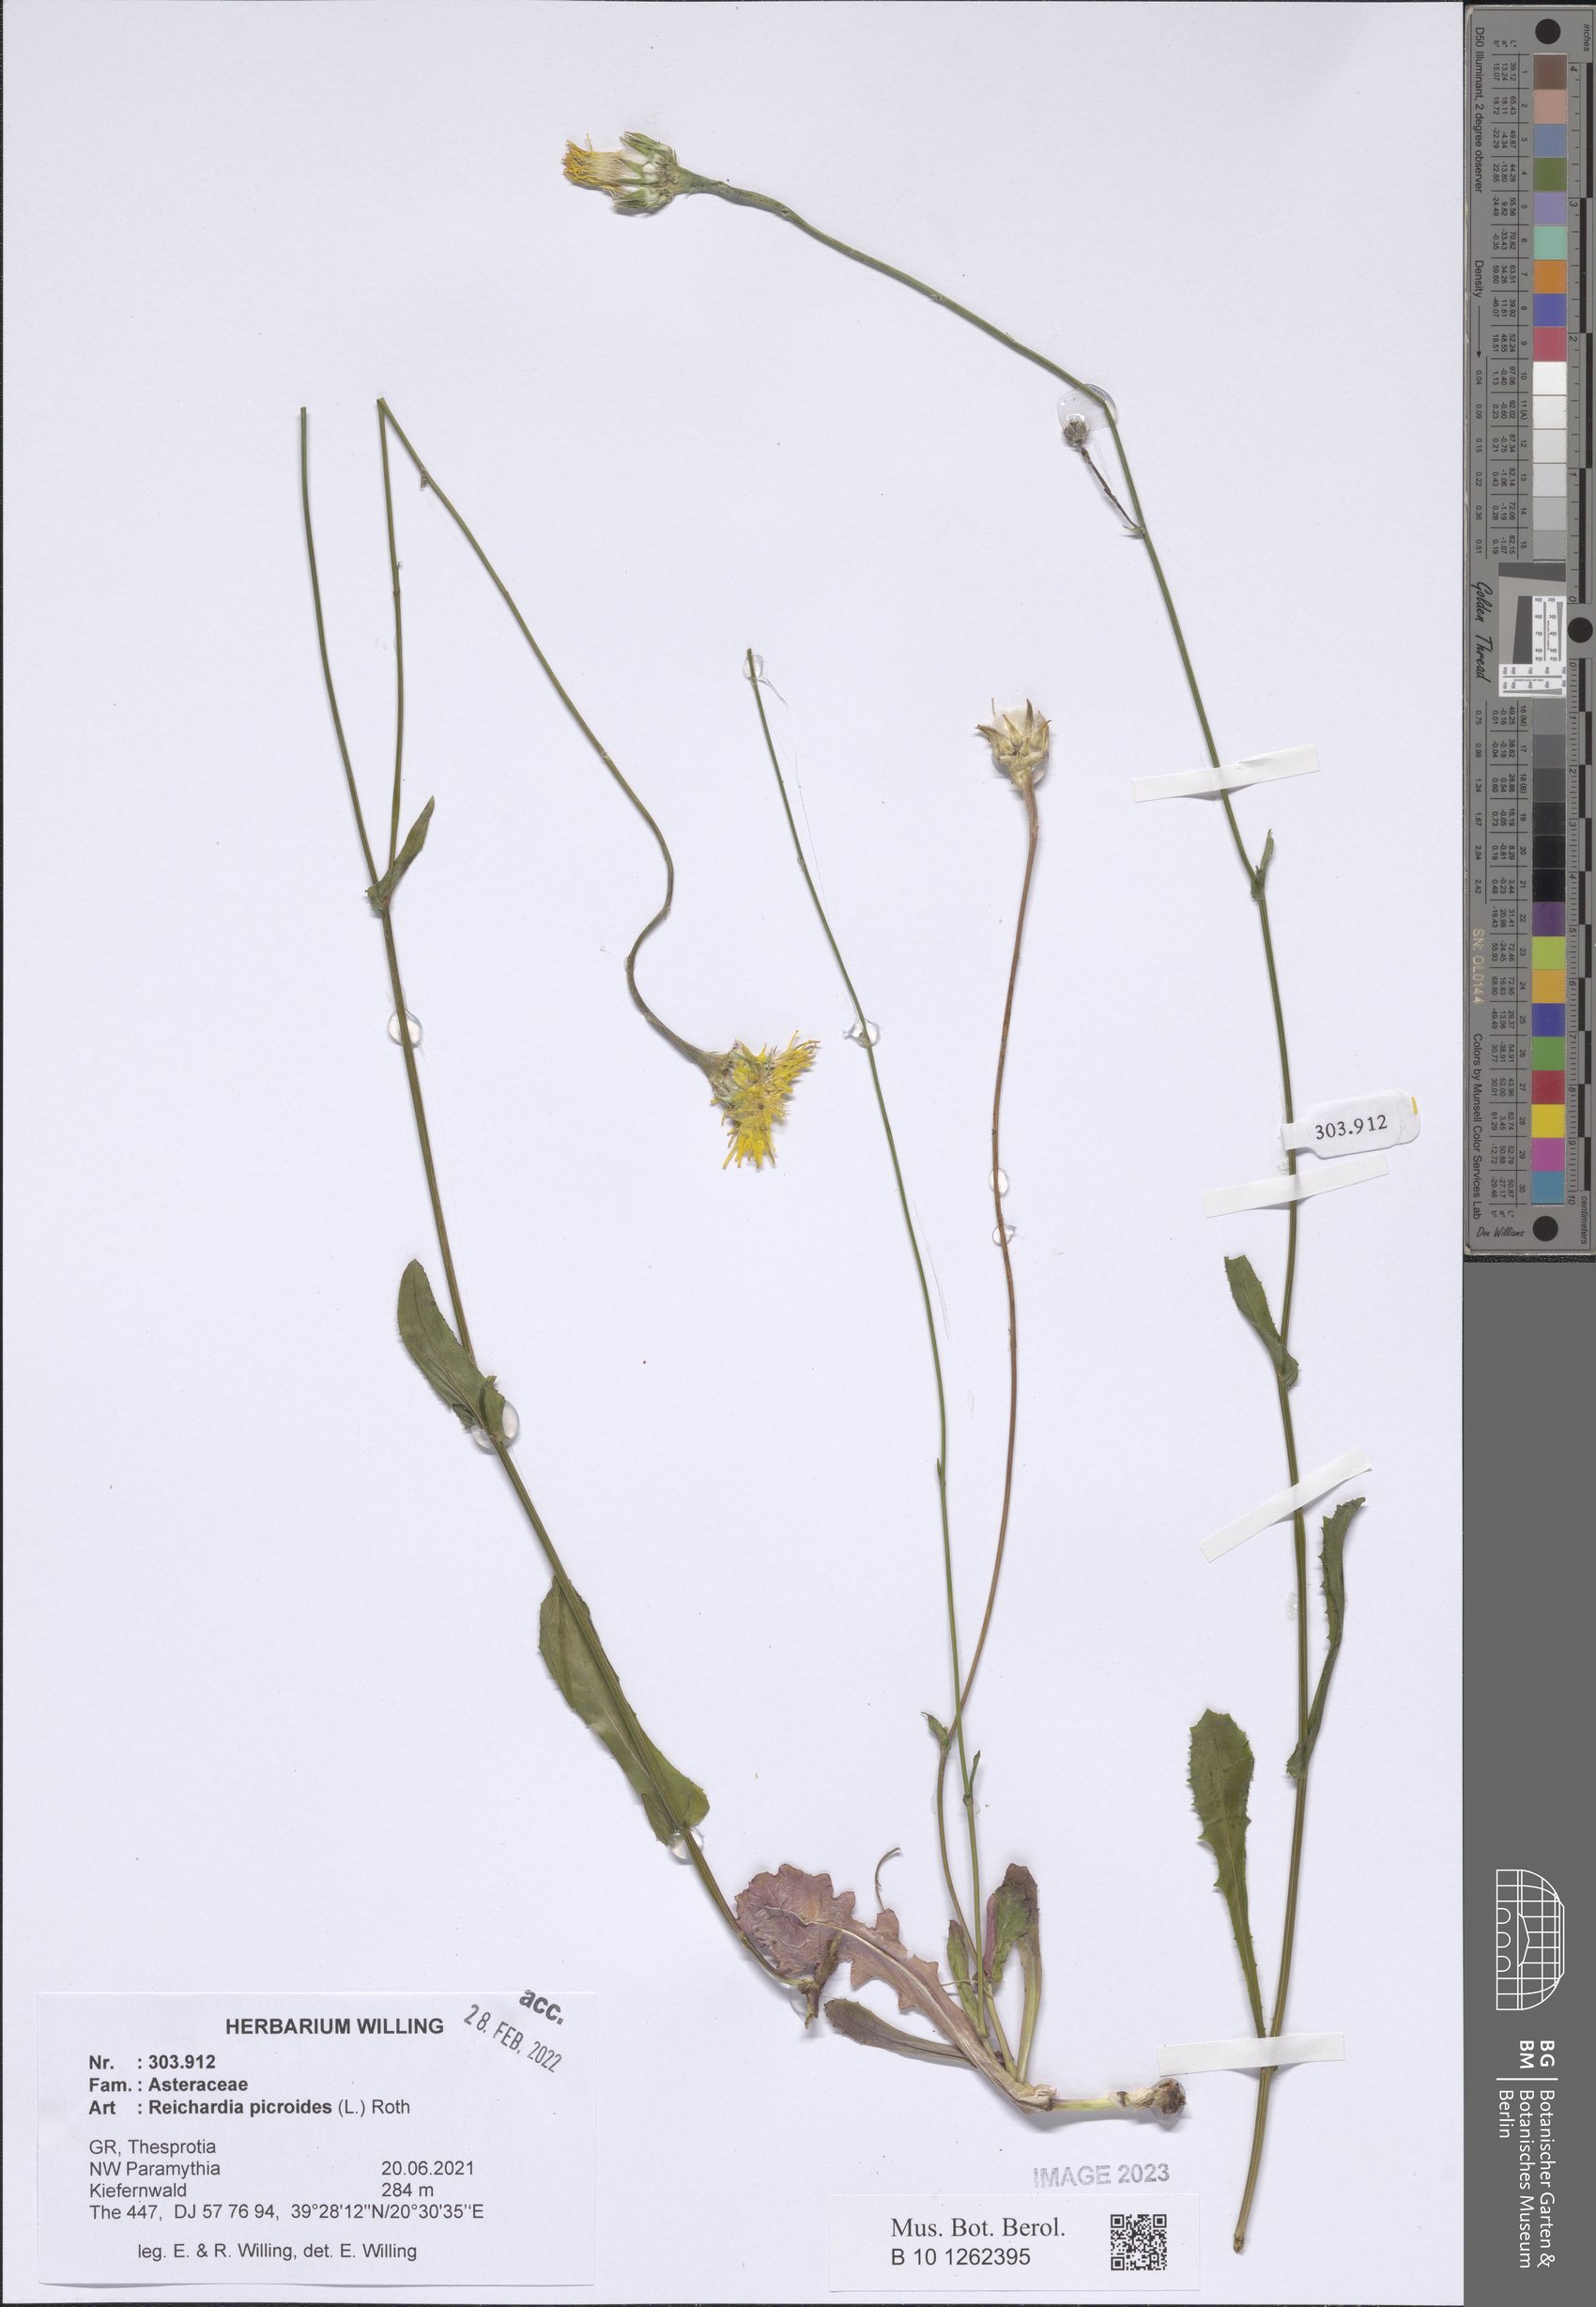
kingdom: Plantae
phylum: Tracheophyta
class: Magnoliopsida
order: Asterales
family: Asteraceae
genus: Reichardia
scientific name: Reichardia picroides
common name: Common brighteyes
